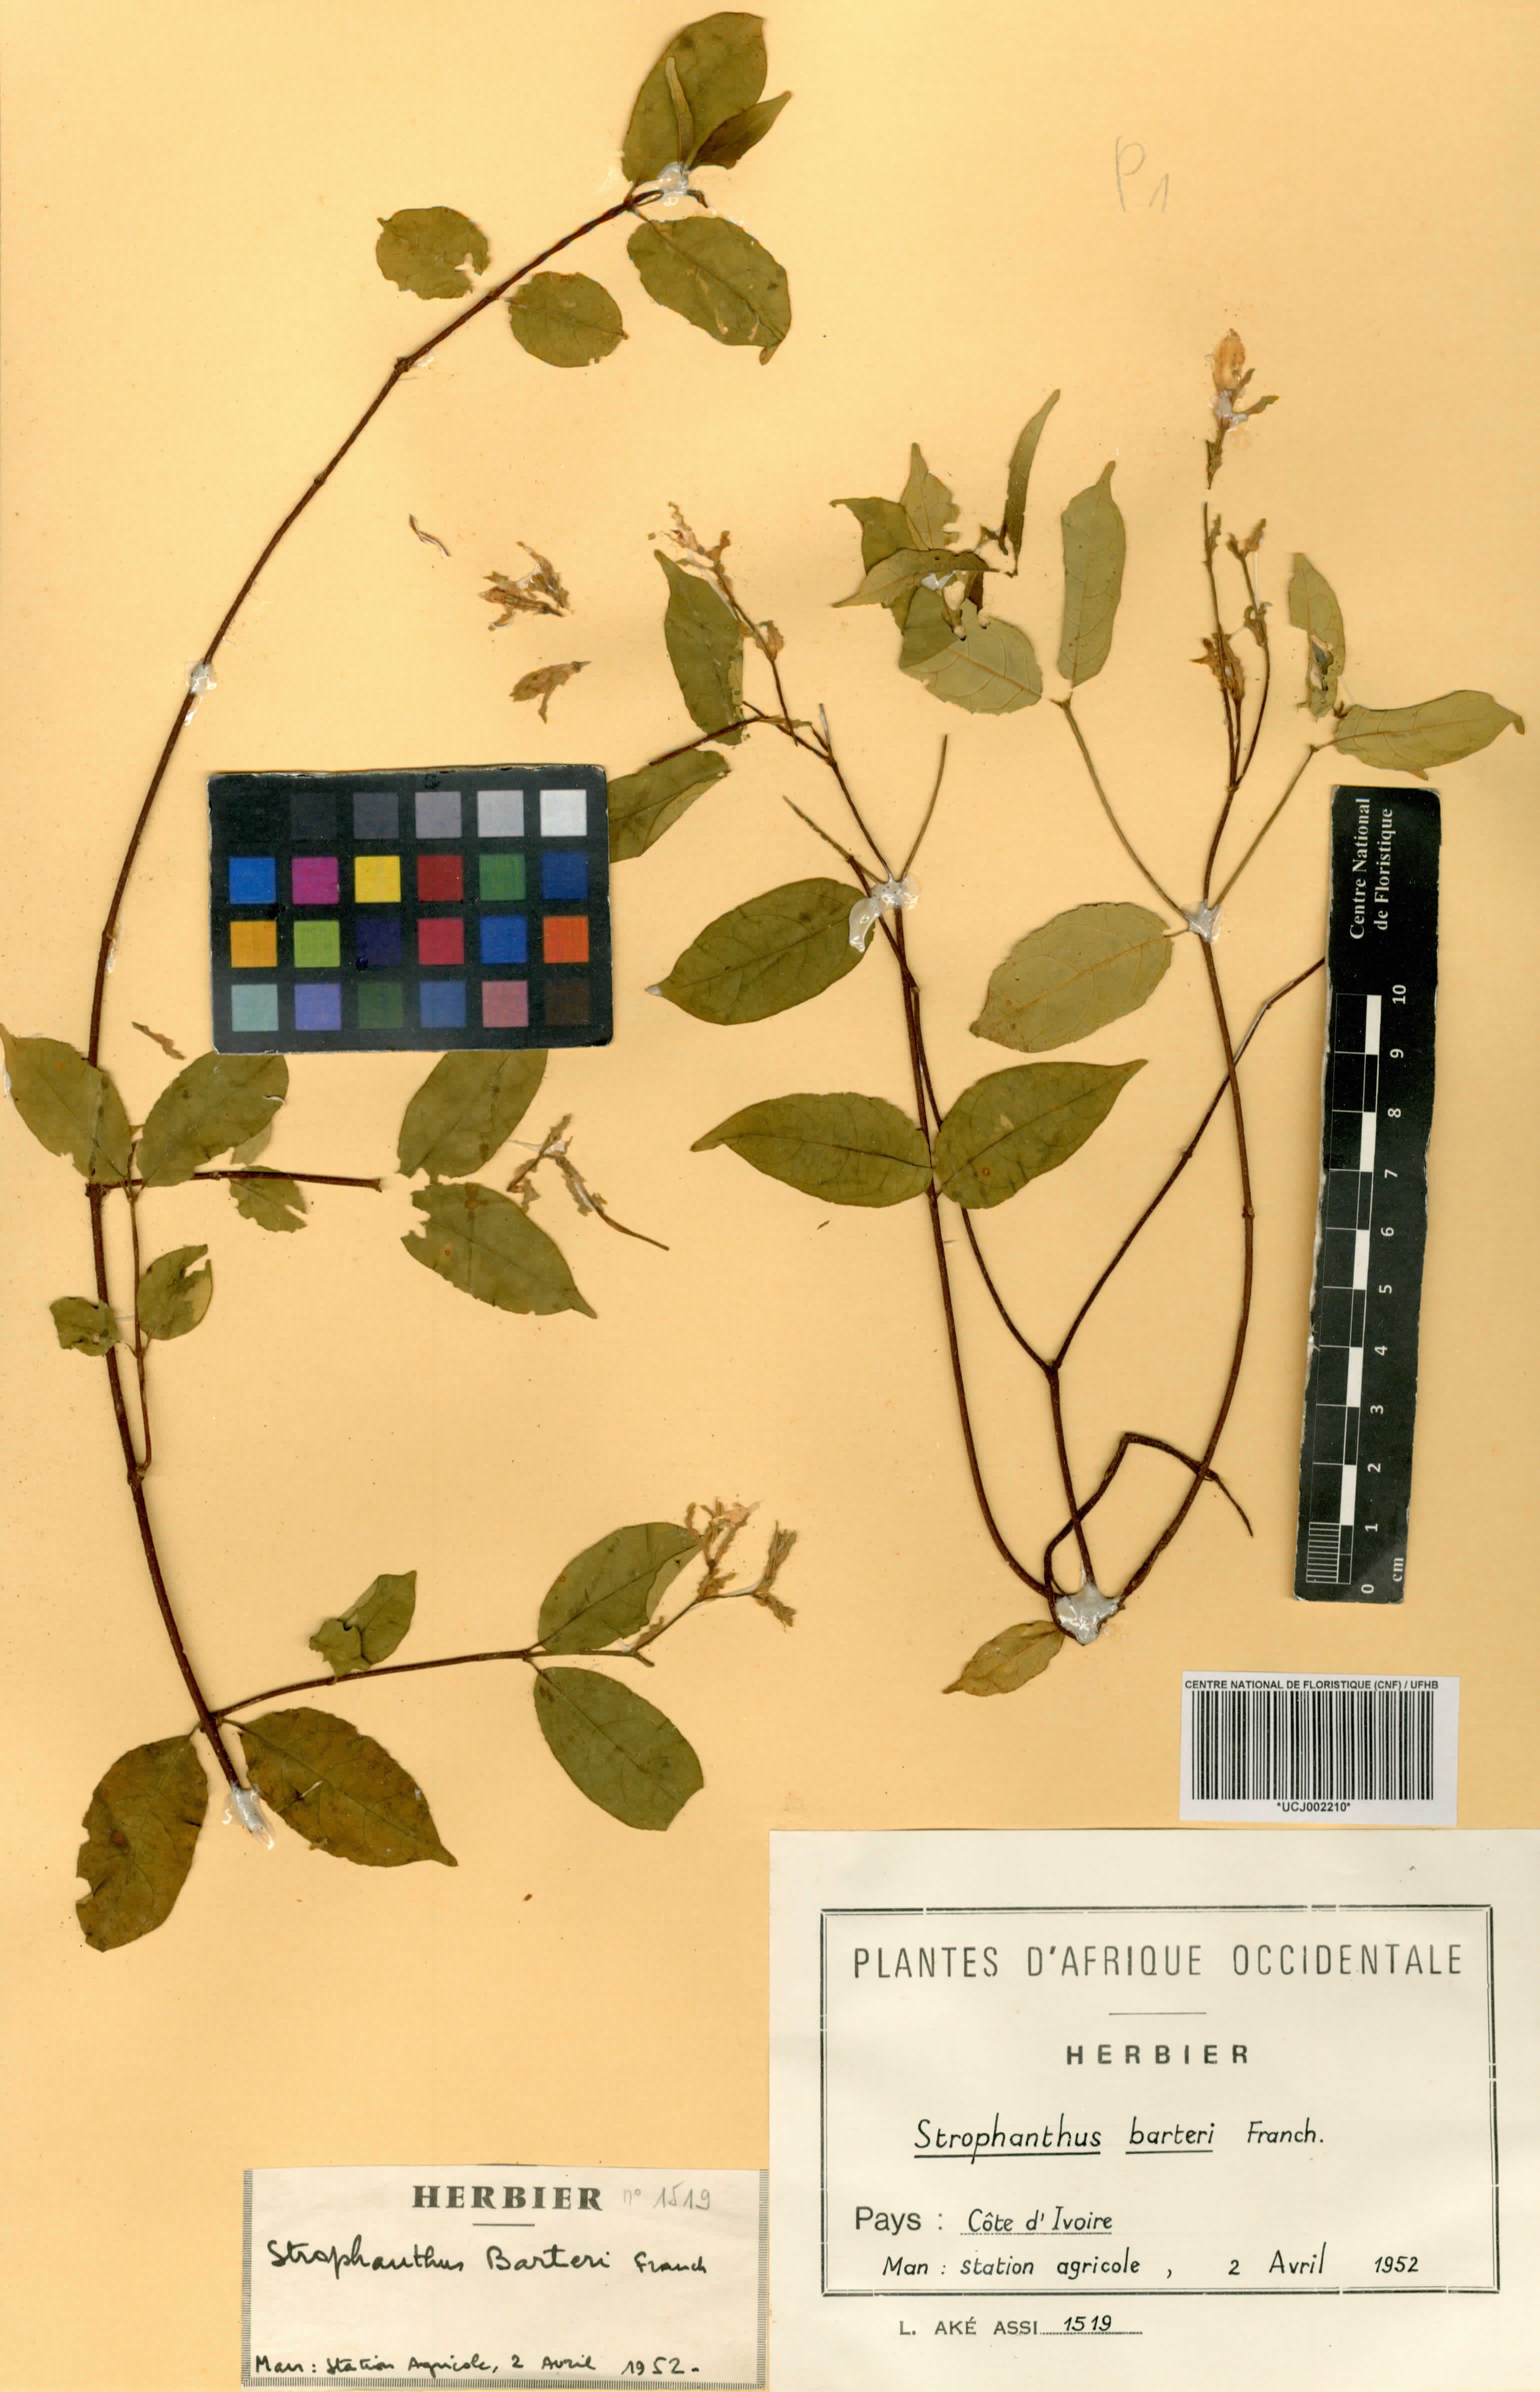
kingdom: Plantae
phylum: Tracheophyta
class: Magnoliopsida
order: Gentianales
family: Apocynaceae
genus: Strophanthus
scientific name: Strophanthus barteri
